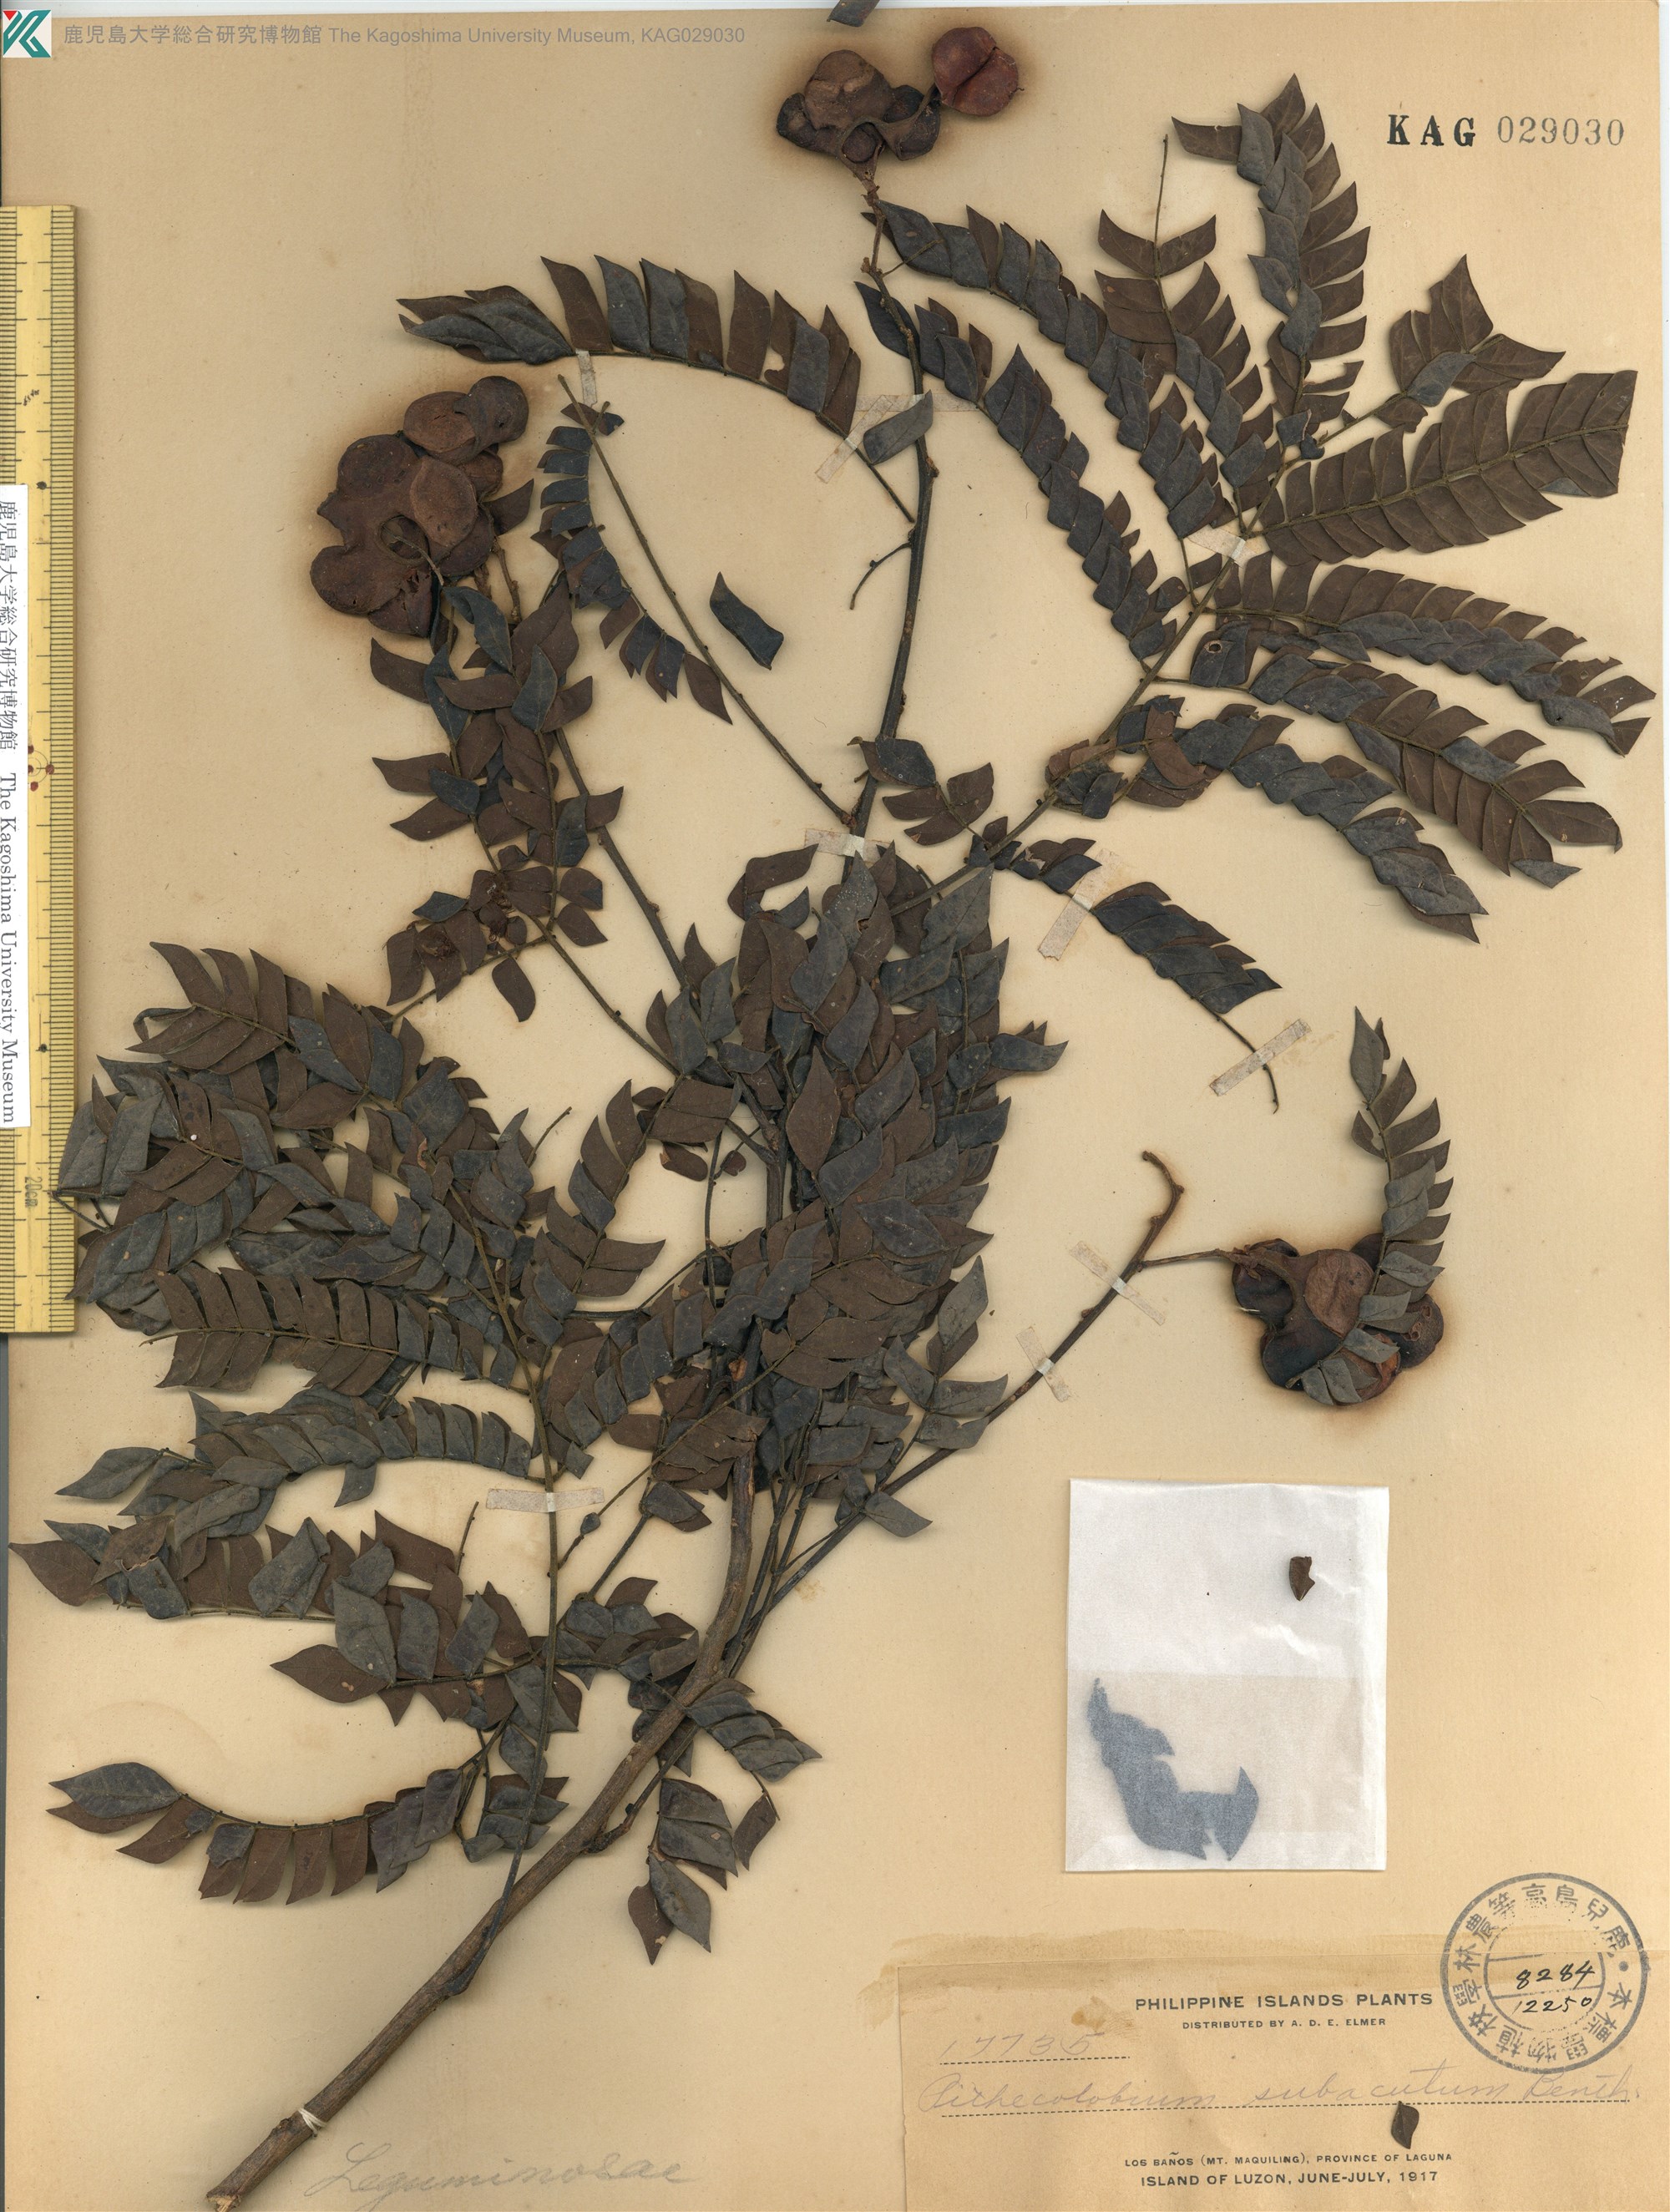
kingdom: Plantae
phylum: Tracheophyta
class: Magnoliopsida
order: Fabales
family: Fabaceae
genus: Archidendron
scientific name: Archidendron clypearia
